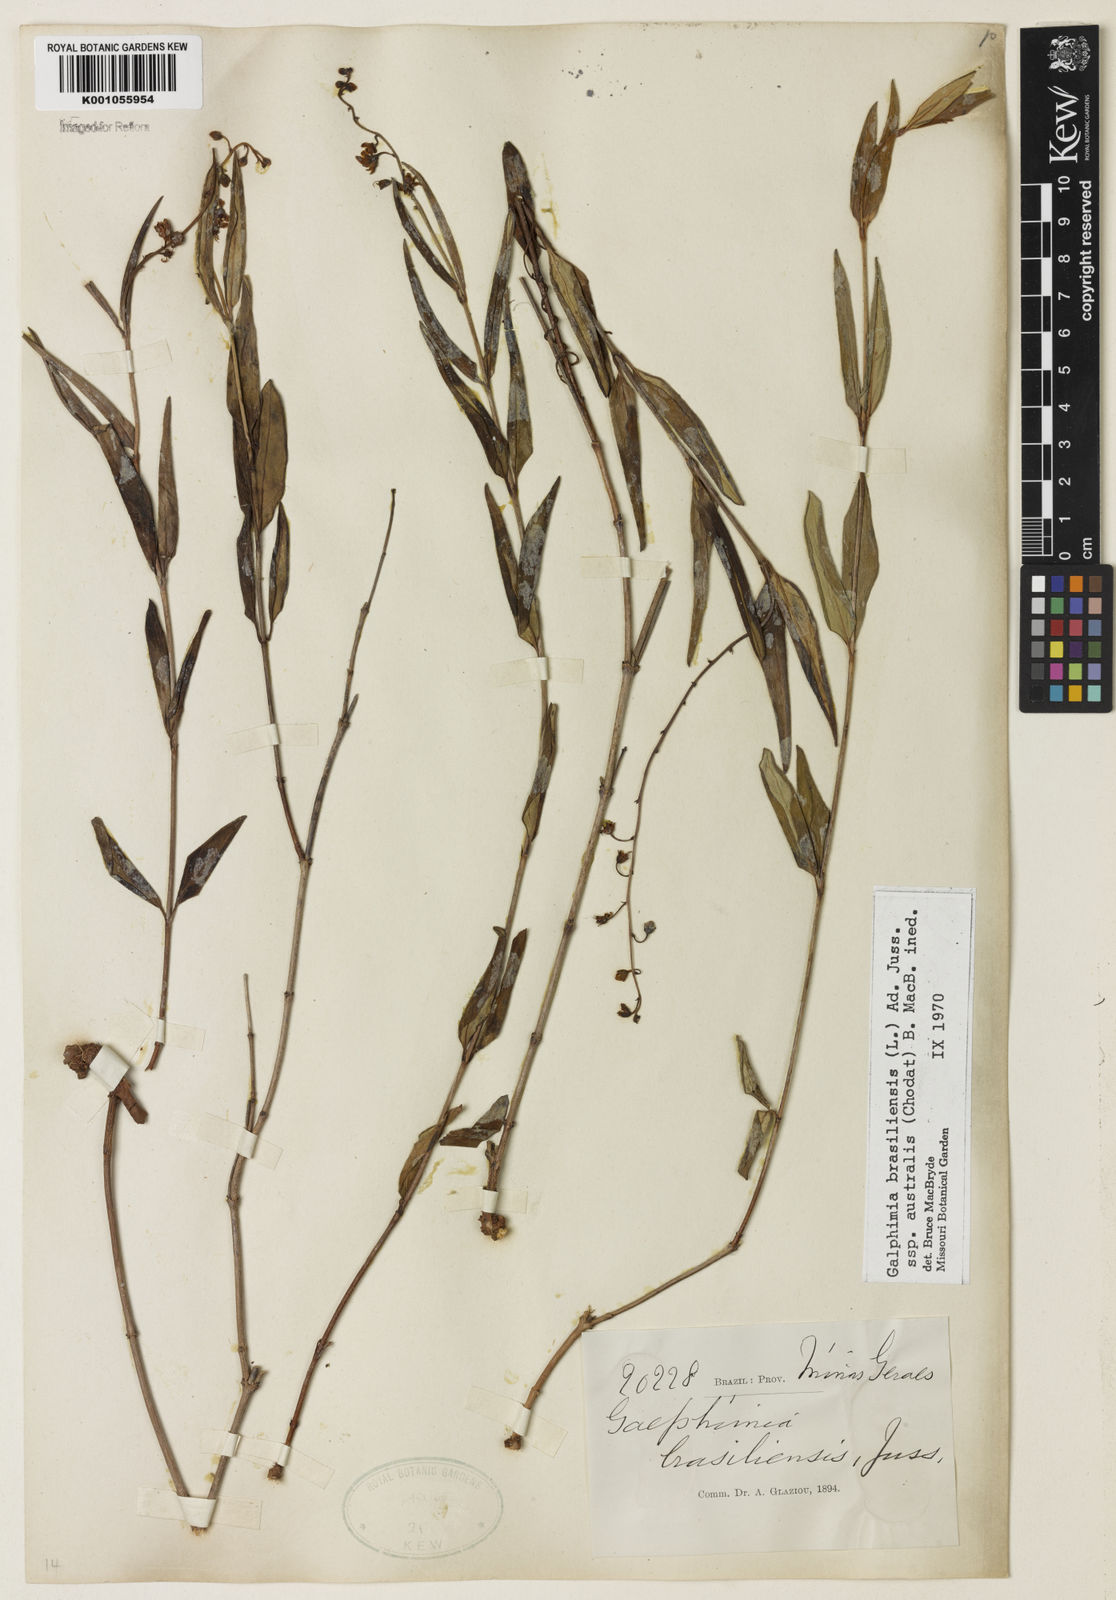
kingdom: Plantae
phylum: Tracheophyta
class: Magnoliopsida
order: Malpighiales
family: Malpighiaceae
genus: Galphimia
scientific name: Galphimia brasiliensis
